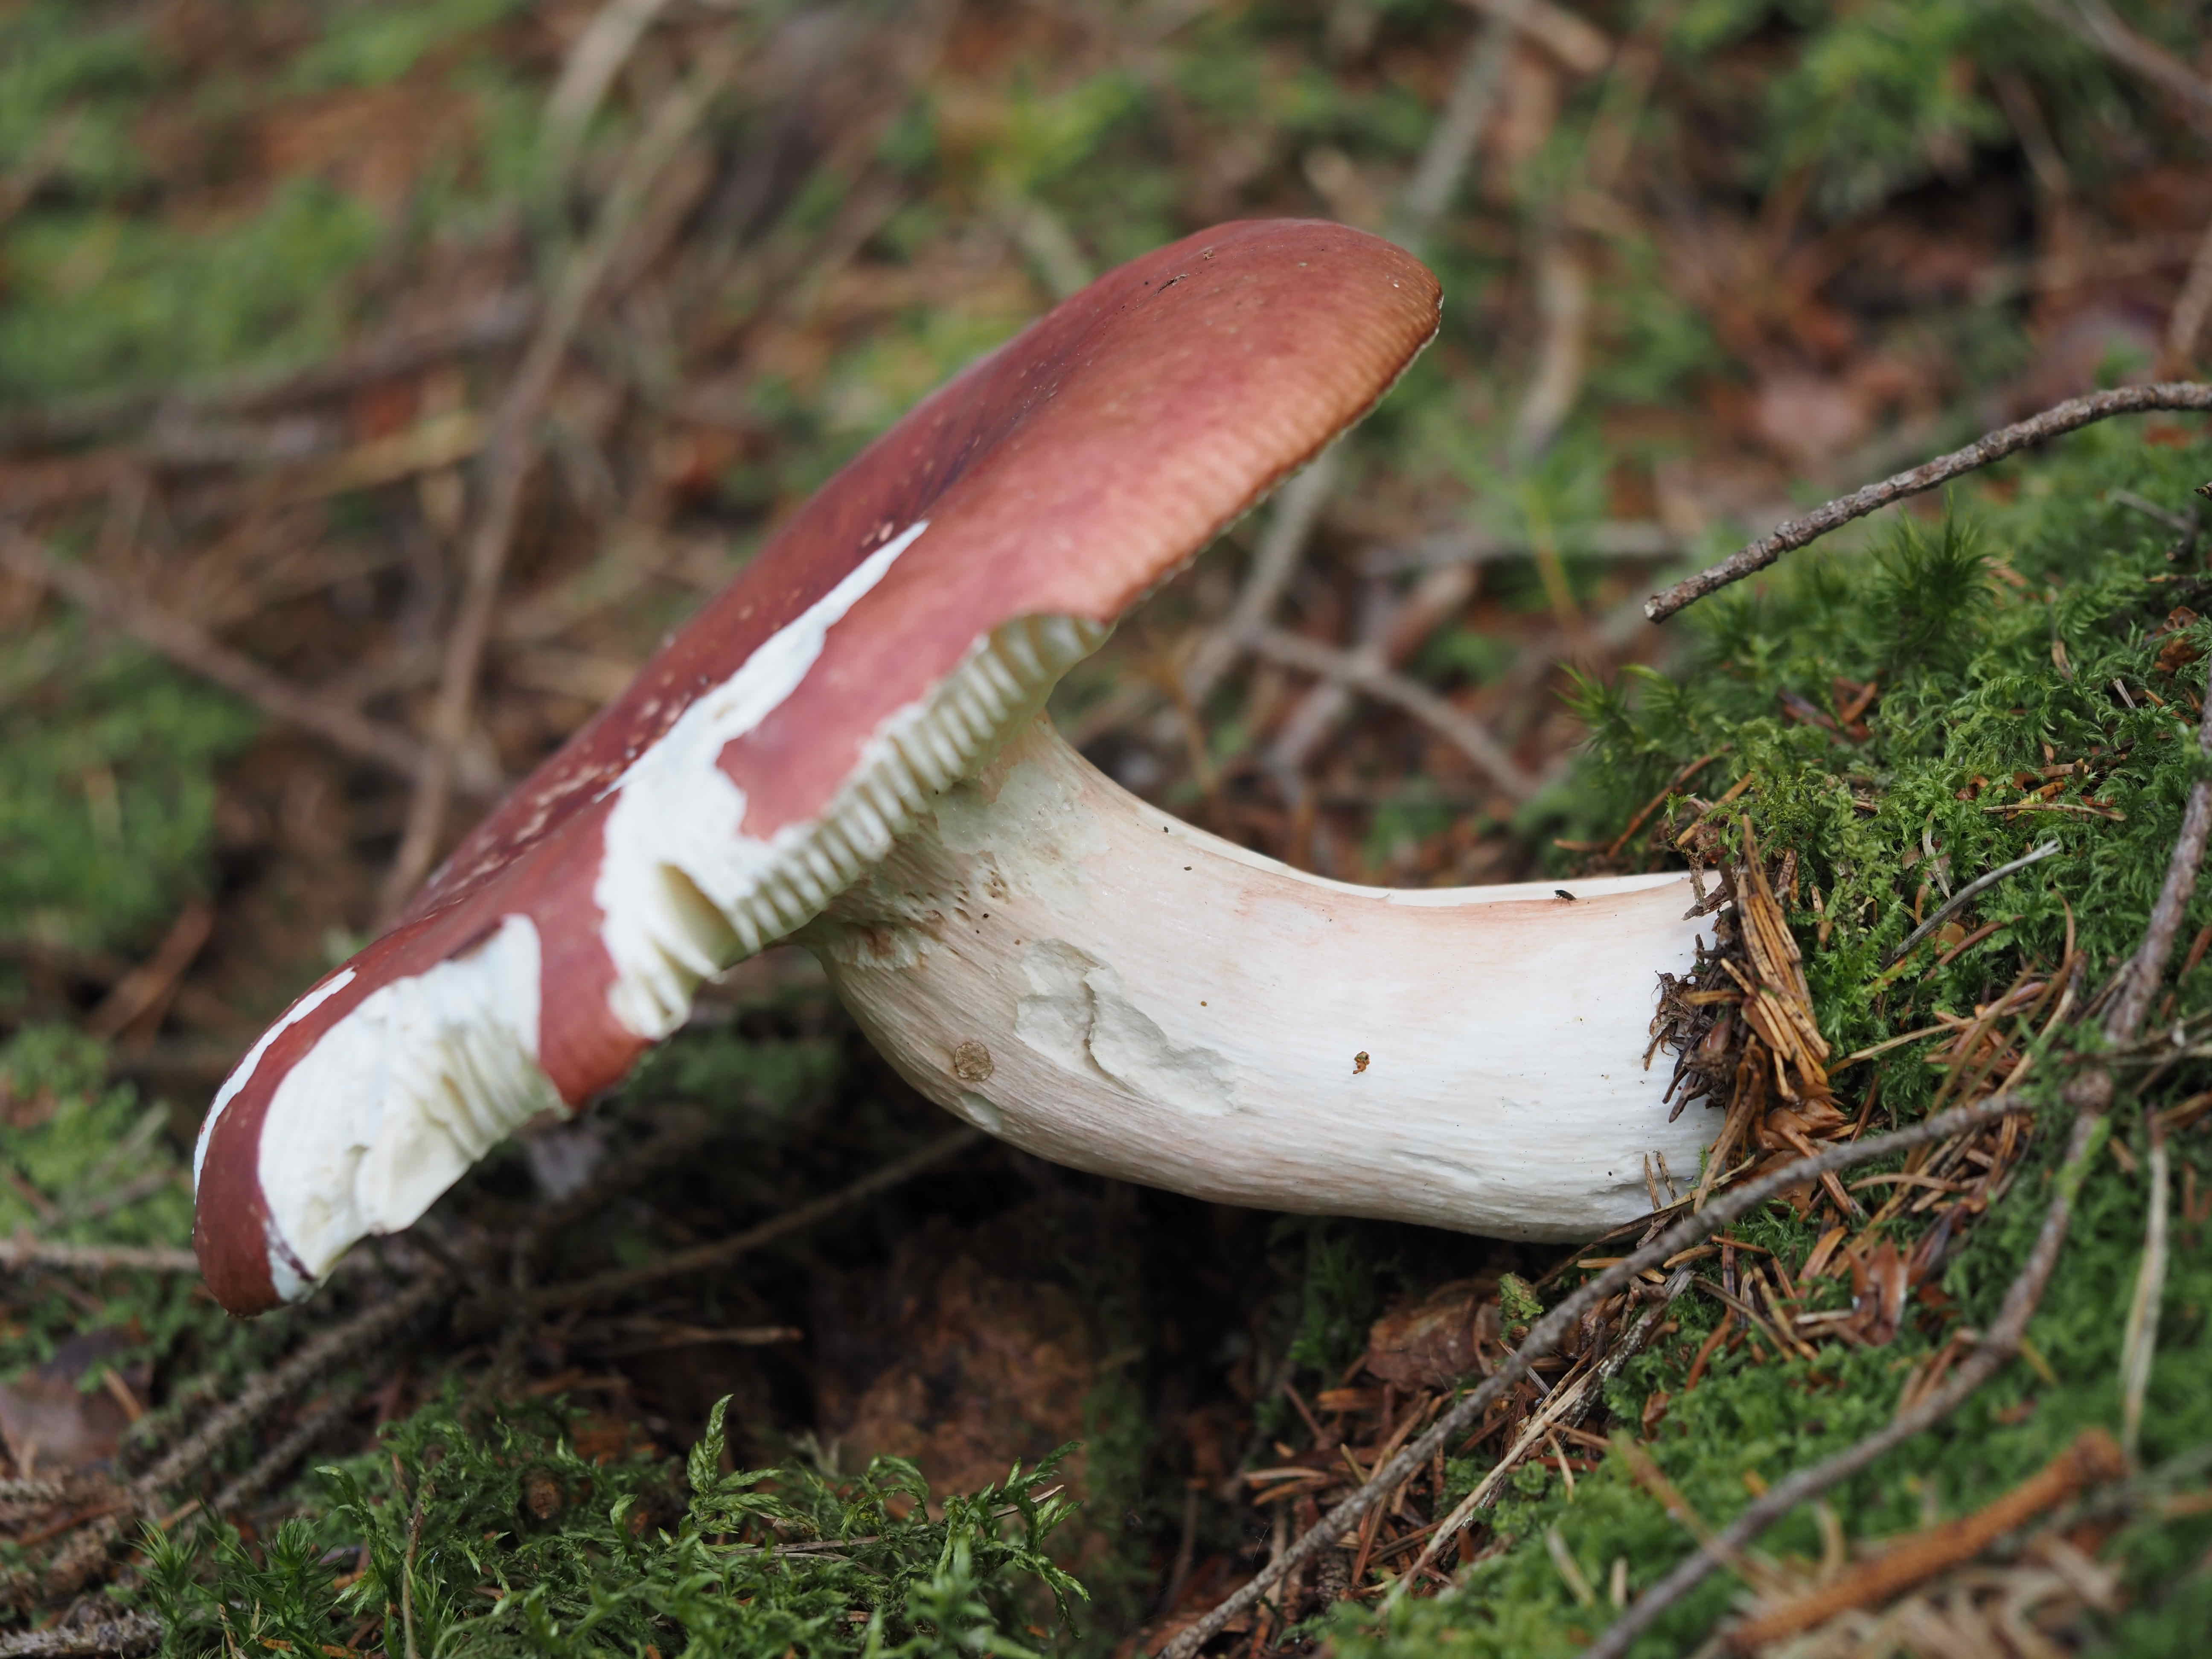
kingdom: Fungi
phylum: Basidiomycota
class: Agaricomycetes
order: Russulales
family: Russulaceae
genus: Russula
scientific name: Russula paludosa
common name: prægtig skørhat
